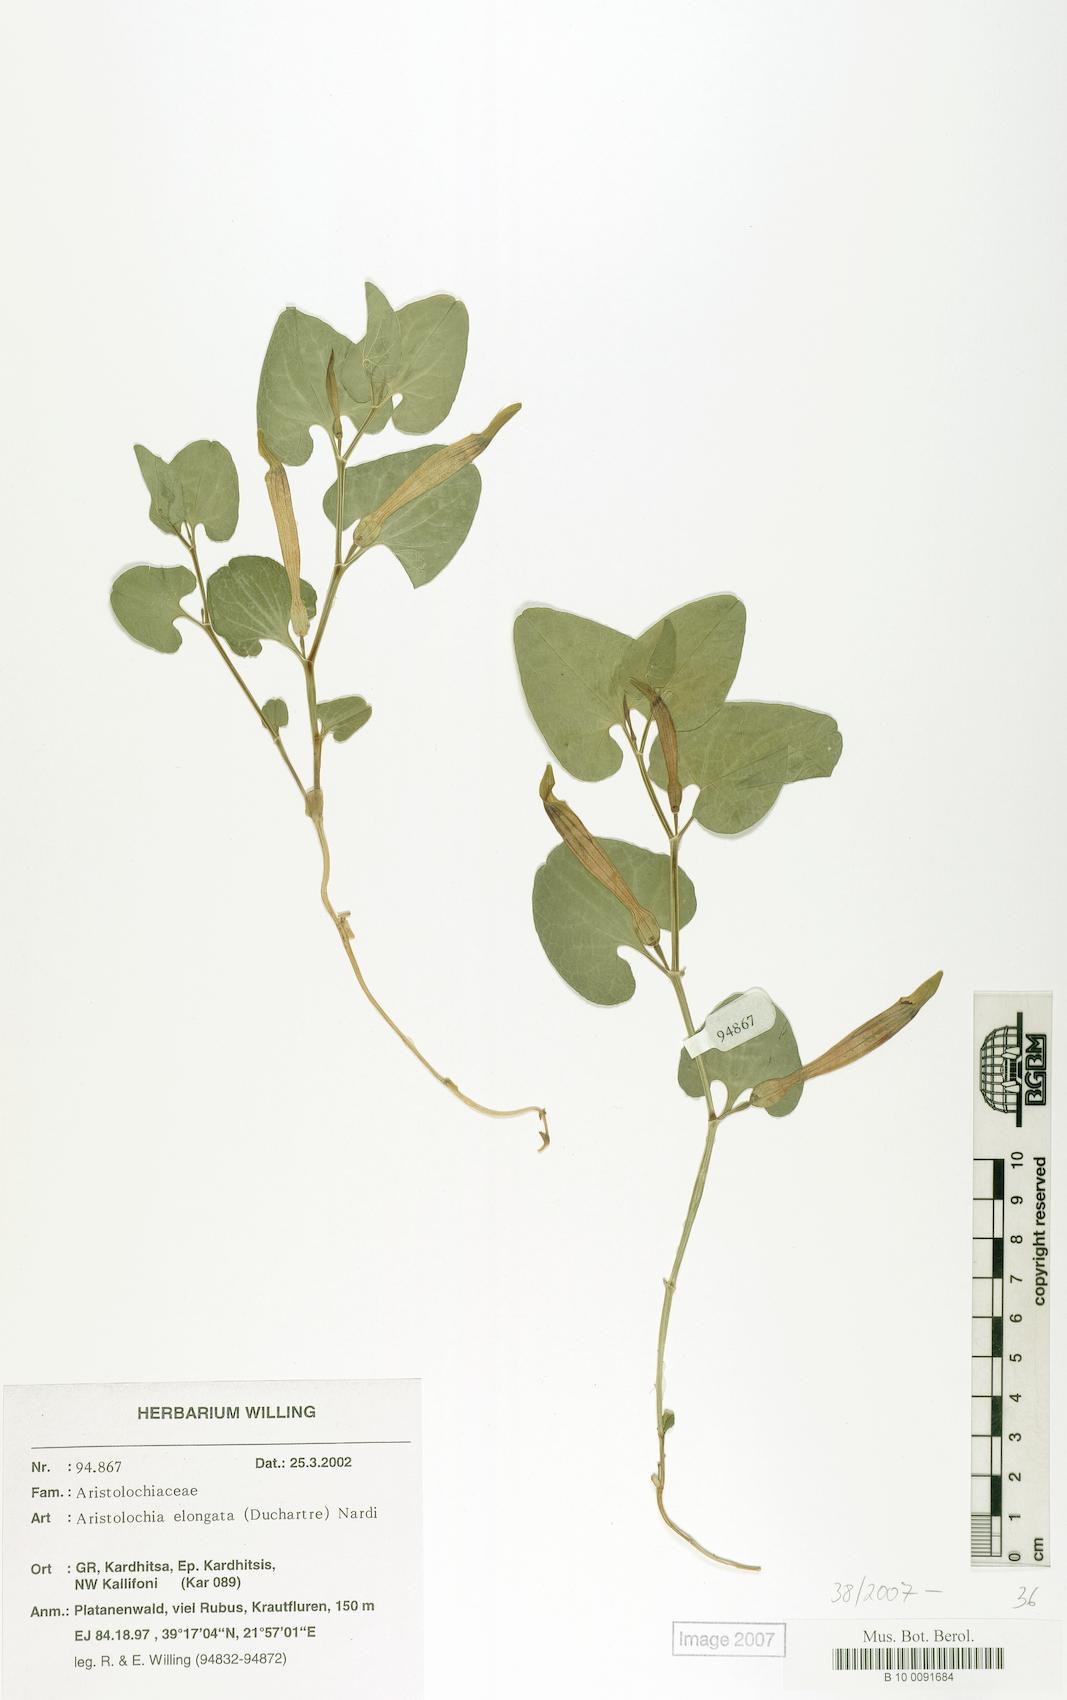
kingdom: Plantae
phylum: Tracheophyta
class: Magnoliopsida
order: Piperales
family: Aristolochiaceae
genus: Aristolochia
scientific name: Aristolochia nardiana
